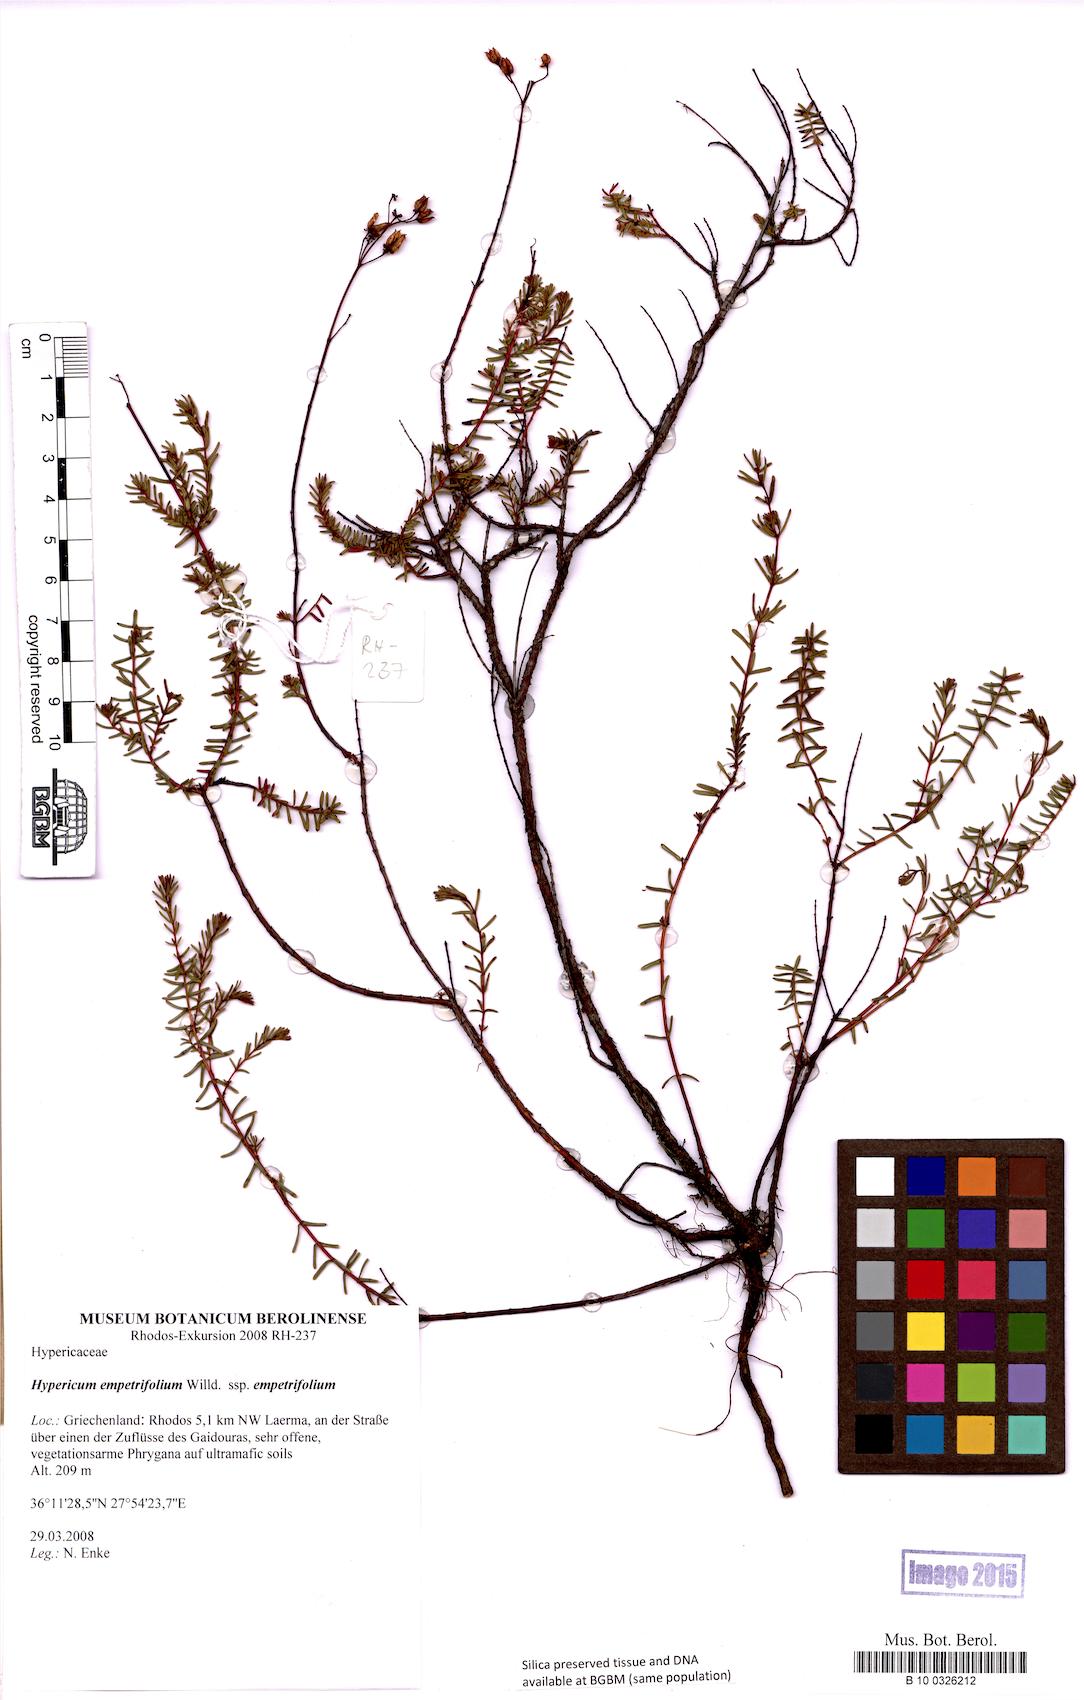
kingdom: Plantae
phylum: Tracheophyta
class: Magnoliopsida
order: Malpighiales
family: Hypericaceae
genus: Hypericum
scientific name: Hypericum empetrifolium
